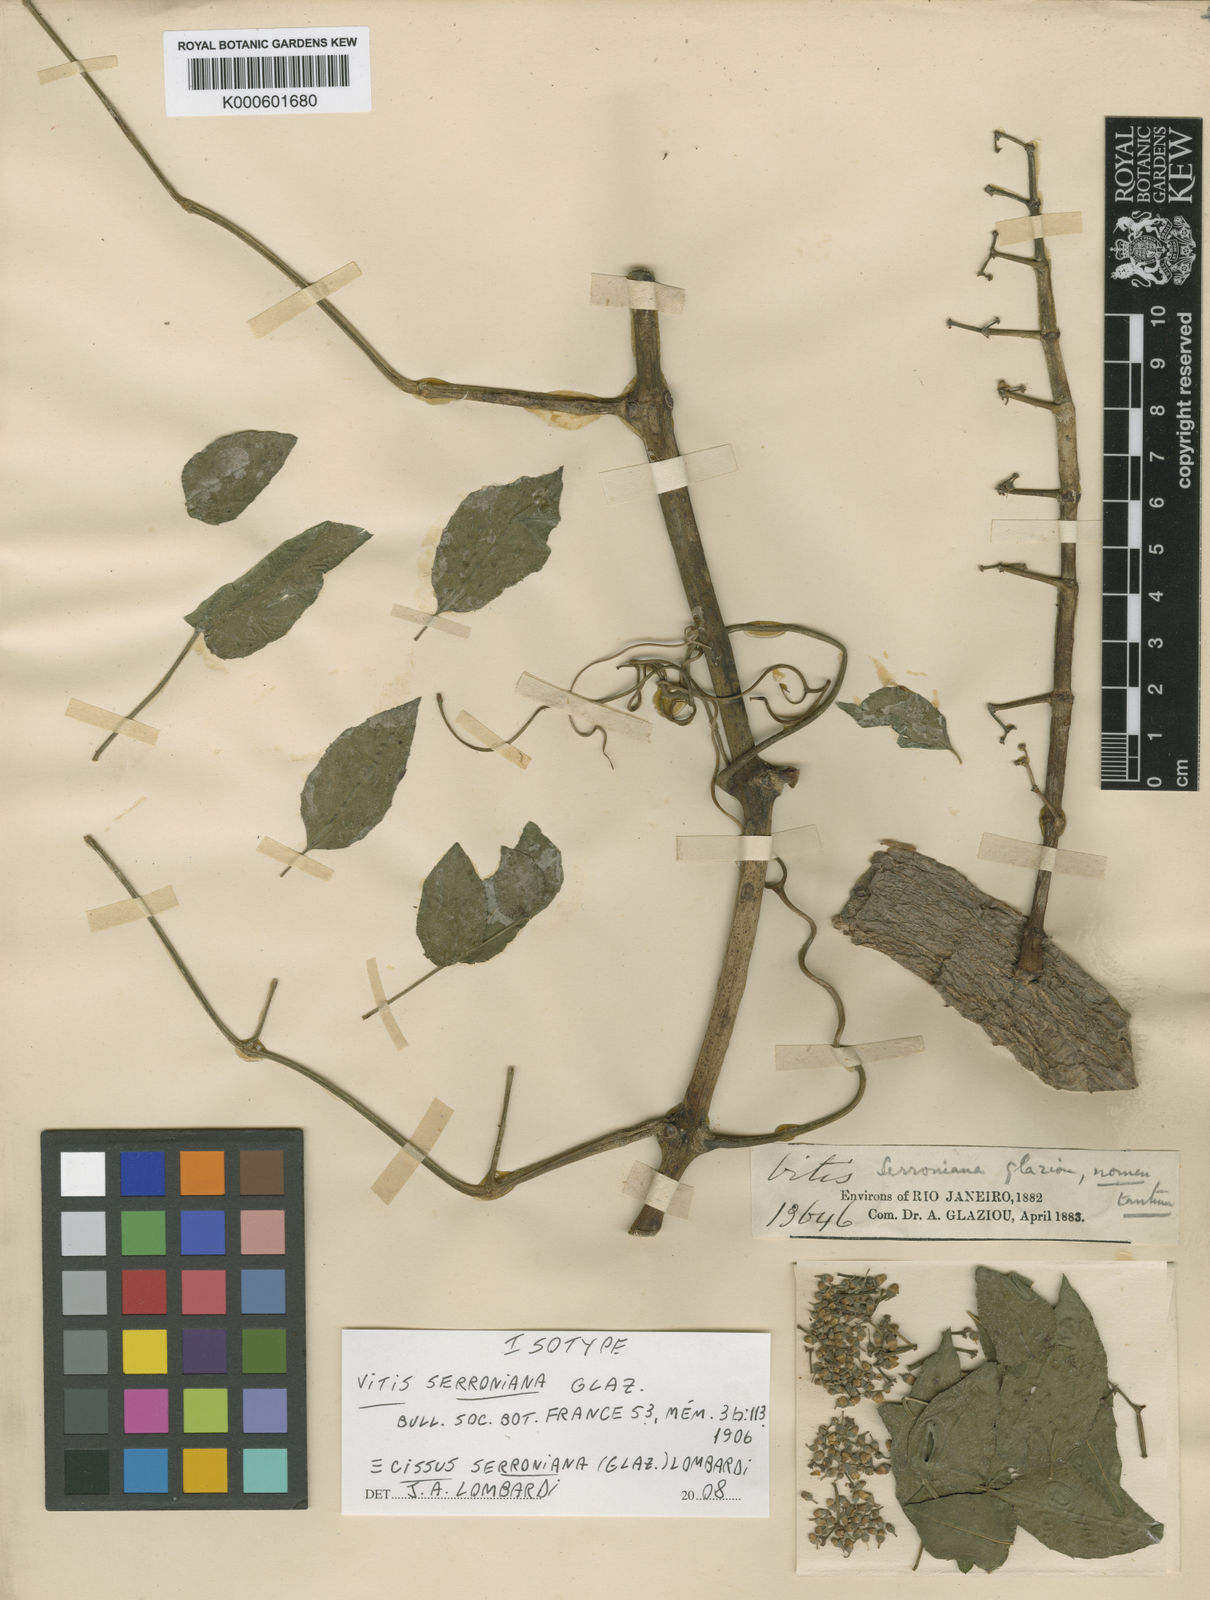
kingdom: Plantae
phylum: Tracheophyta
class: Magnoliopsida
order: Vitales
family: Vitaceae
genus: Cissus
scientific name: Cissus serroniana
